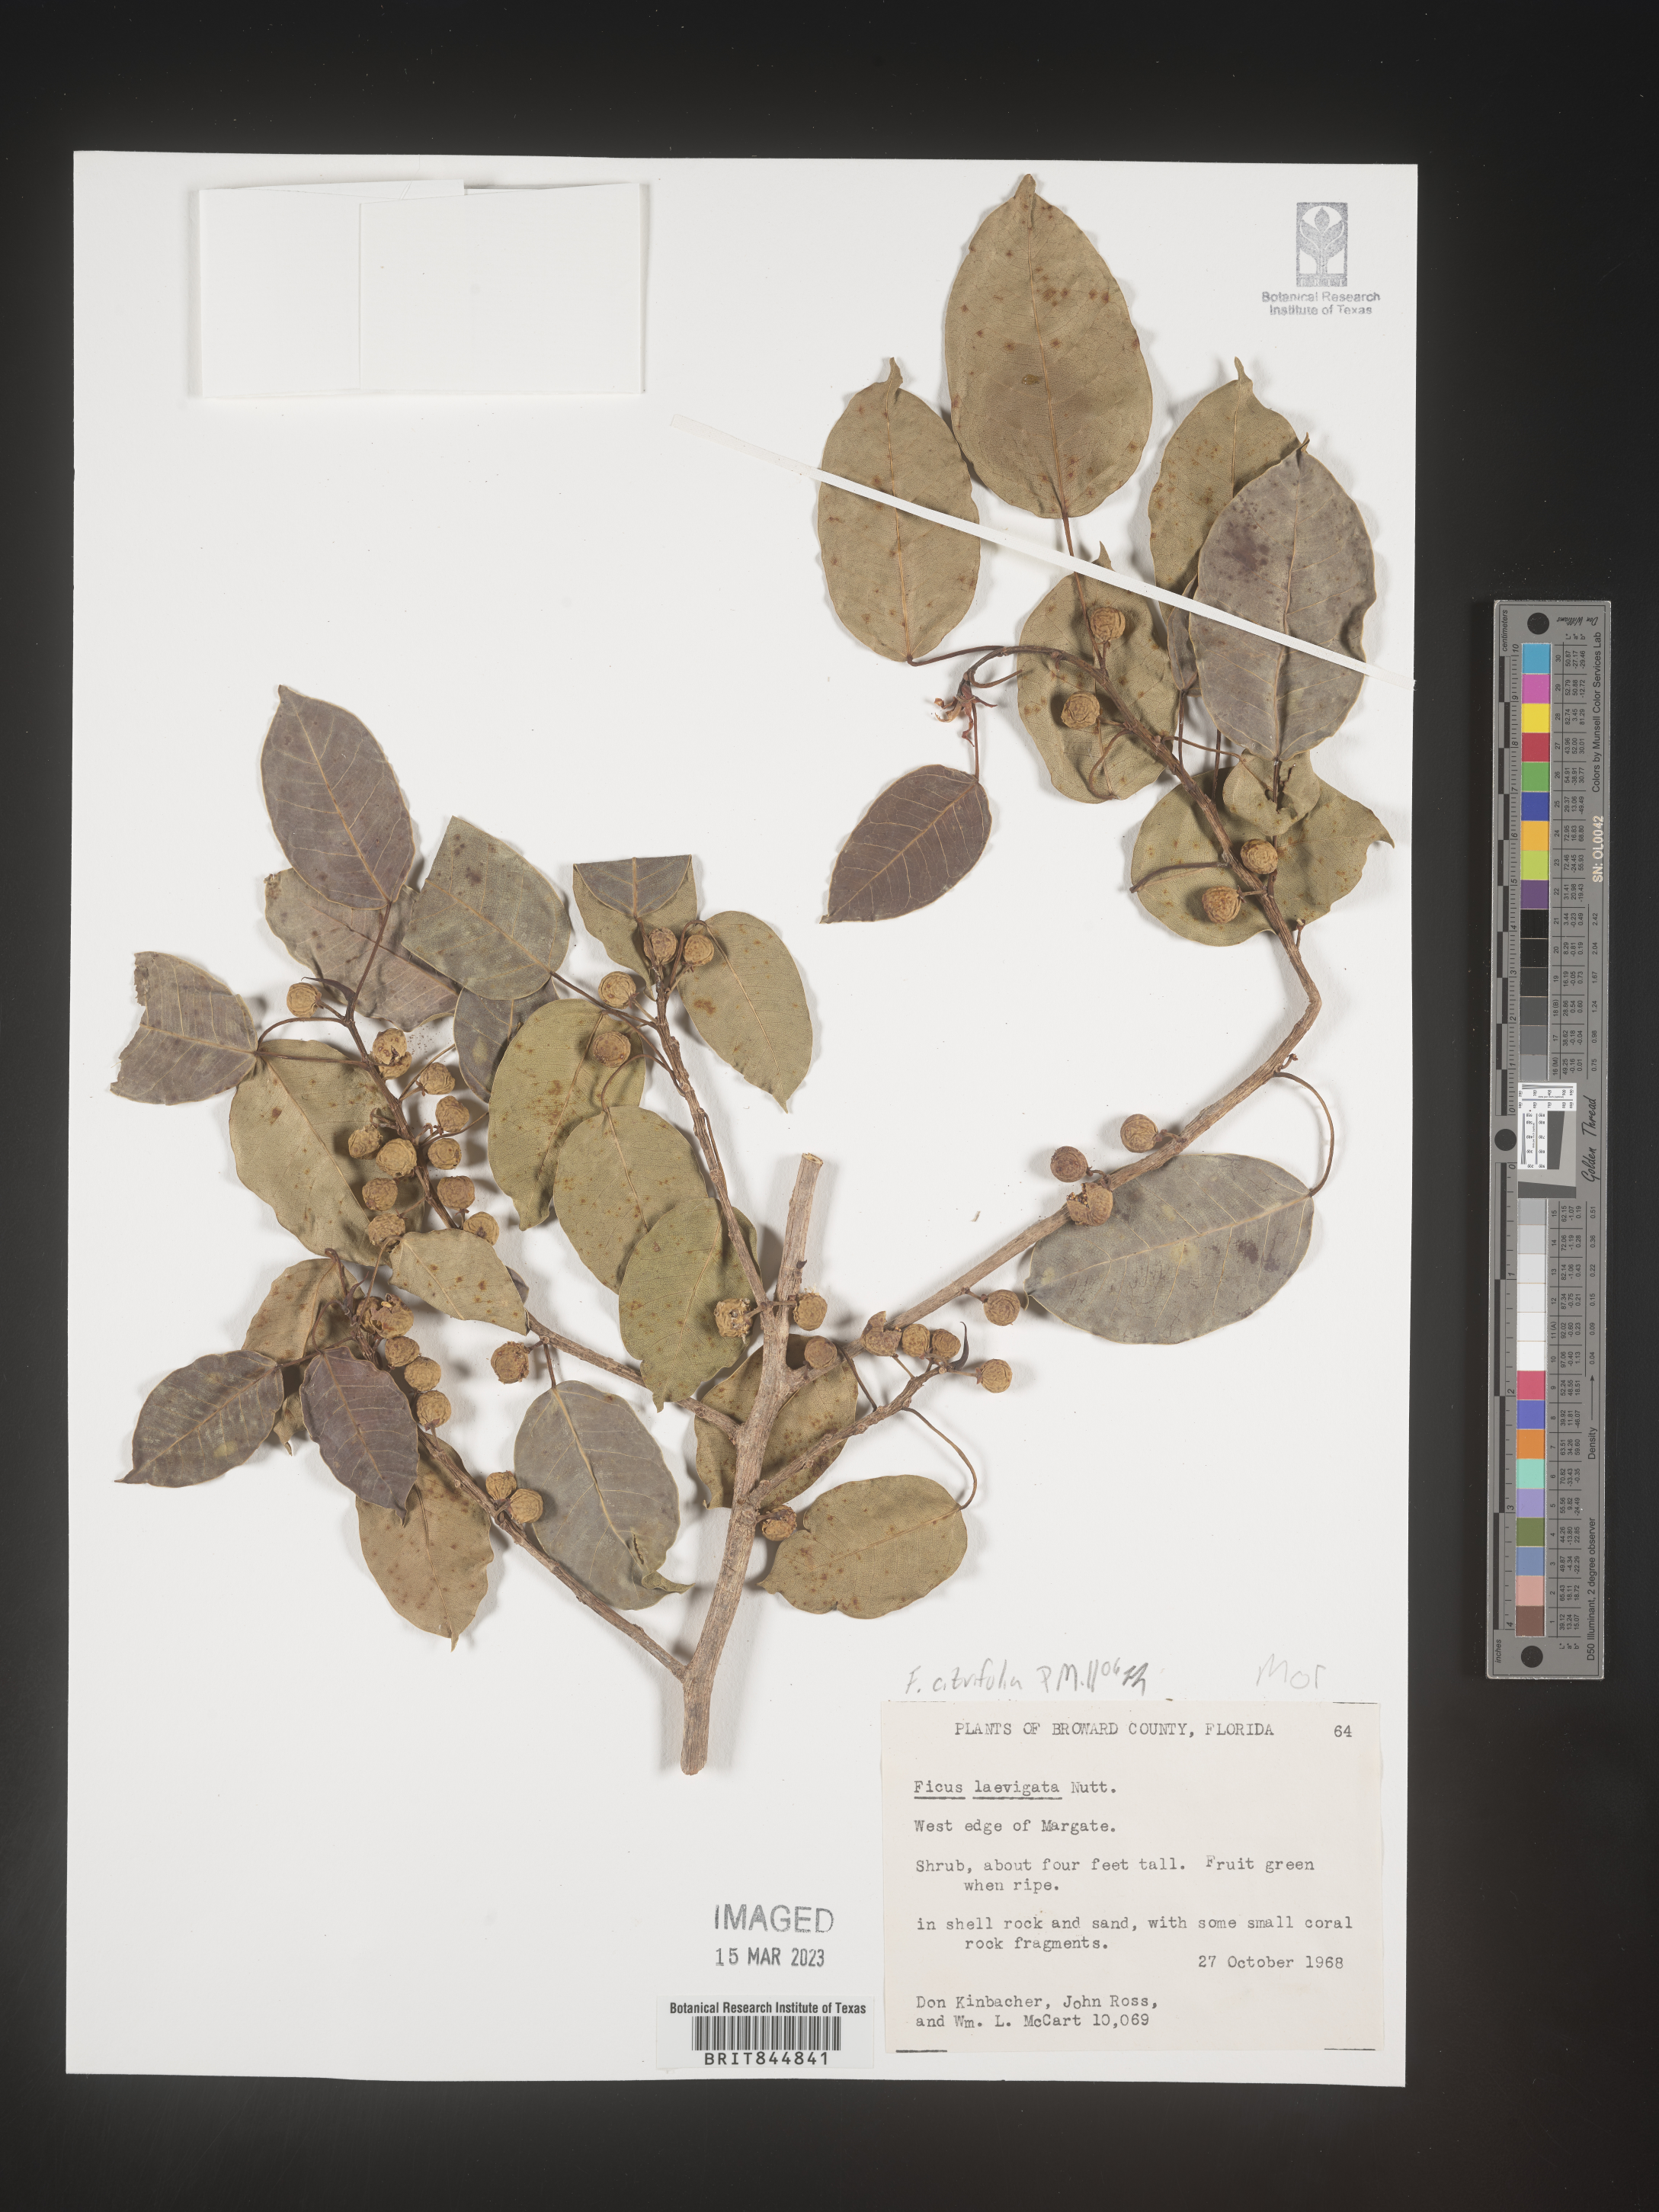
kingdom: Plantae
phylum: Tracheophyta
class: Magnoliopsida
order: Rosales
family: Moraceae
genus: Ficus
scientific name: Ficus
